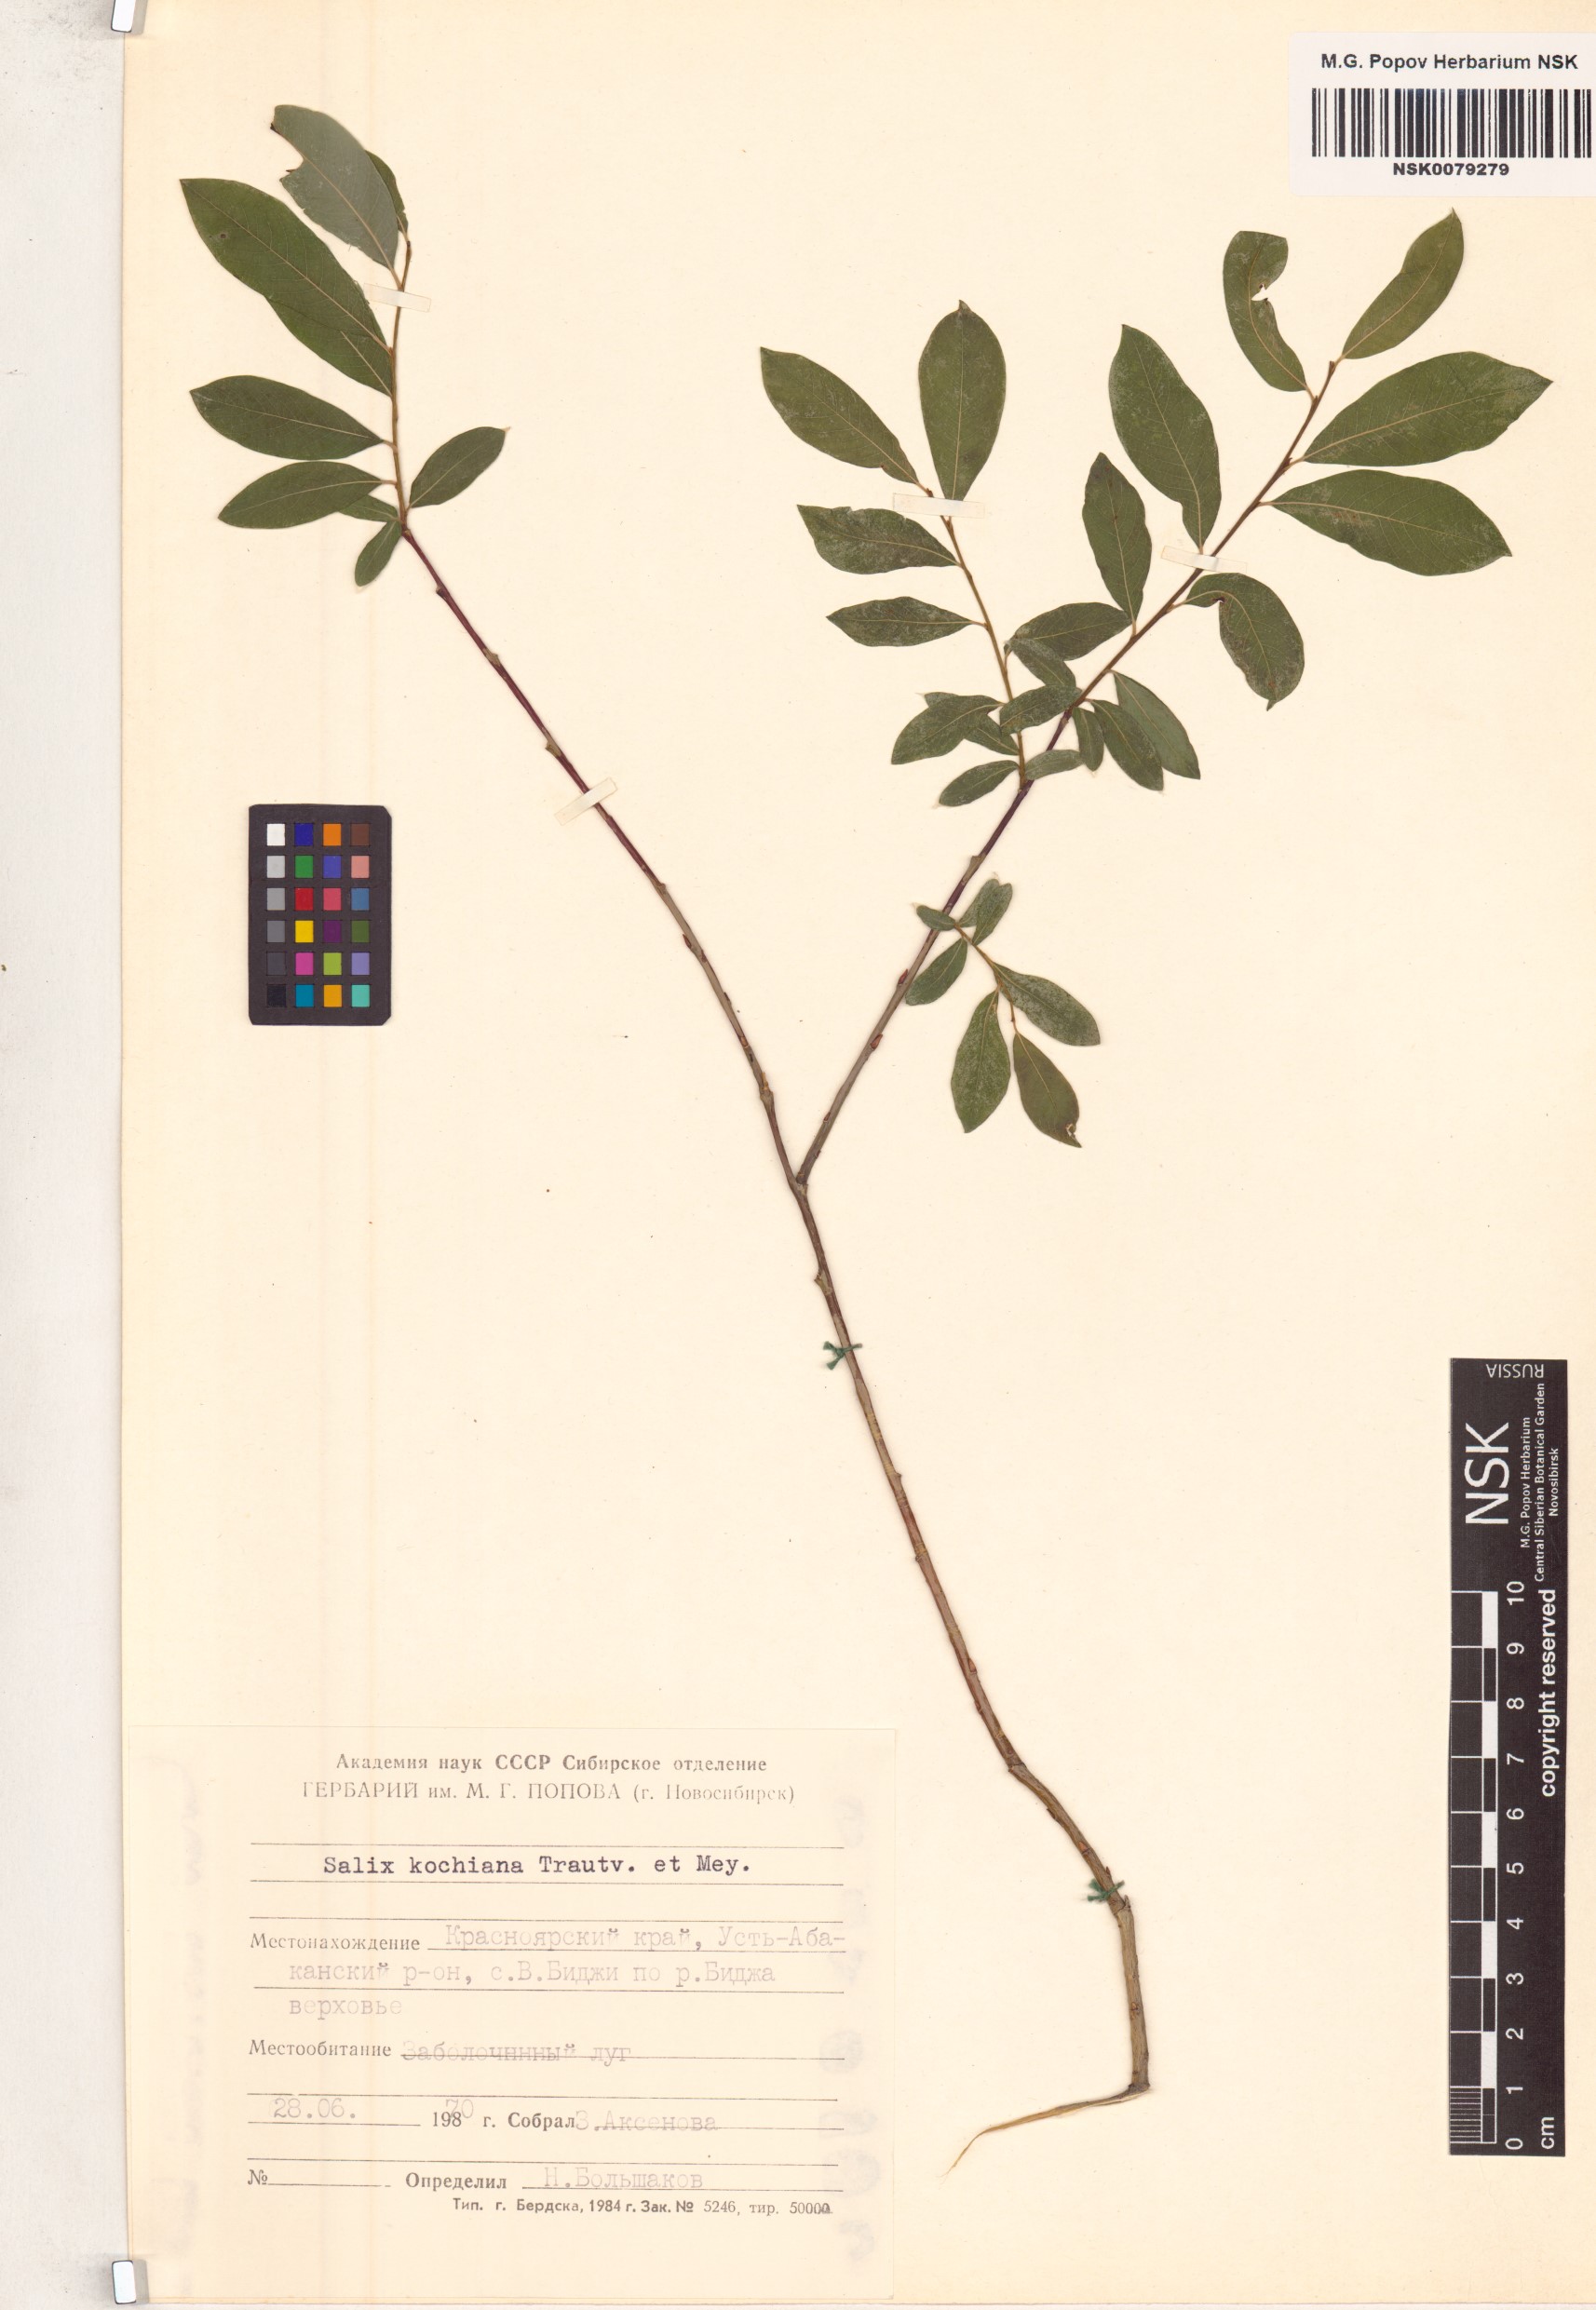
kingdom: Plantae
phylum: Tracheophyta
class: Magnoliopsida
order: Malpighiales
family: Salicaceae
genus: Salix
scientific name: Salix kochiana
